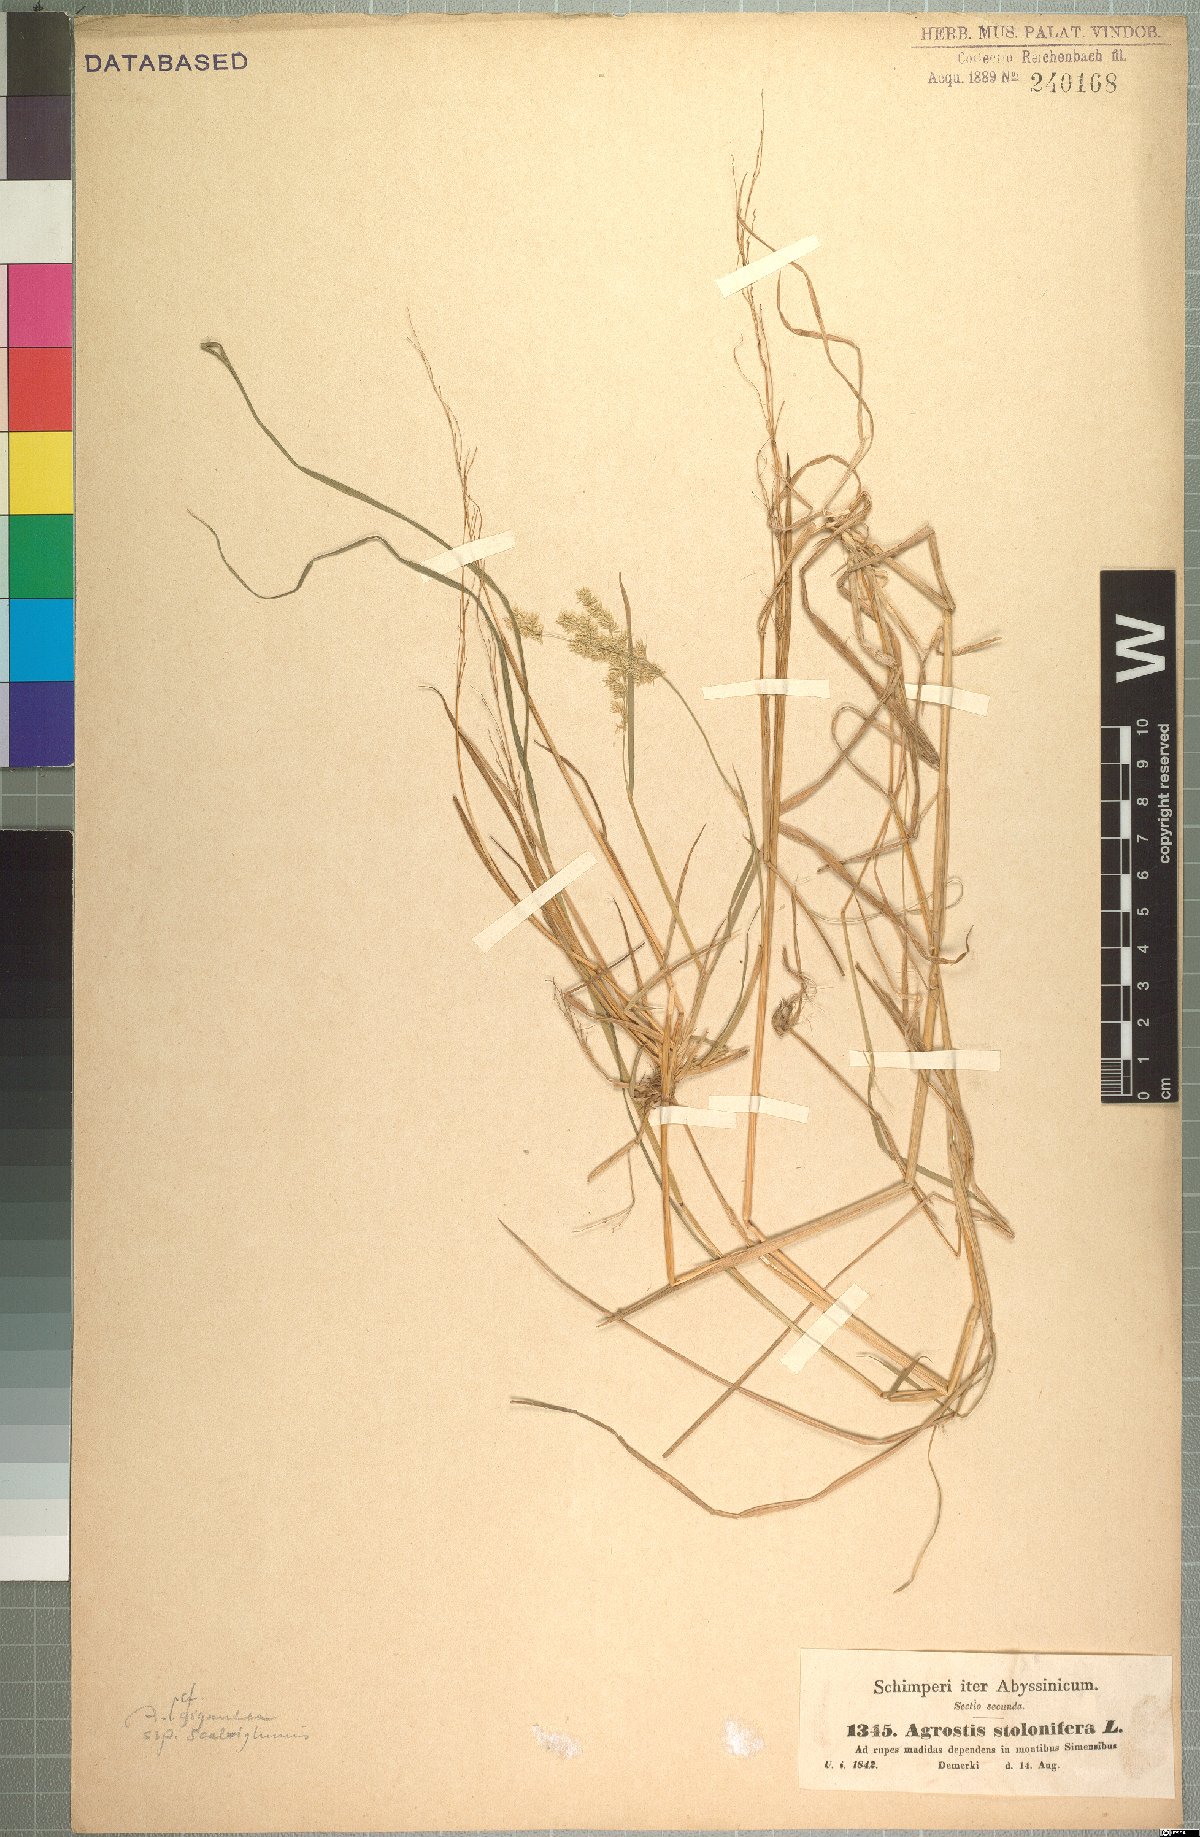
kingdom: Plantae
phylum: Tracheophyta
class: Liliopsida
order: Poales
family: Poaceae
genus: Polypogon
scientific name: Polypogon schimperianus
